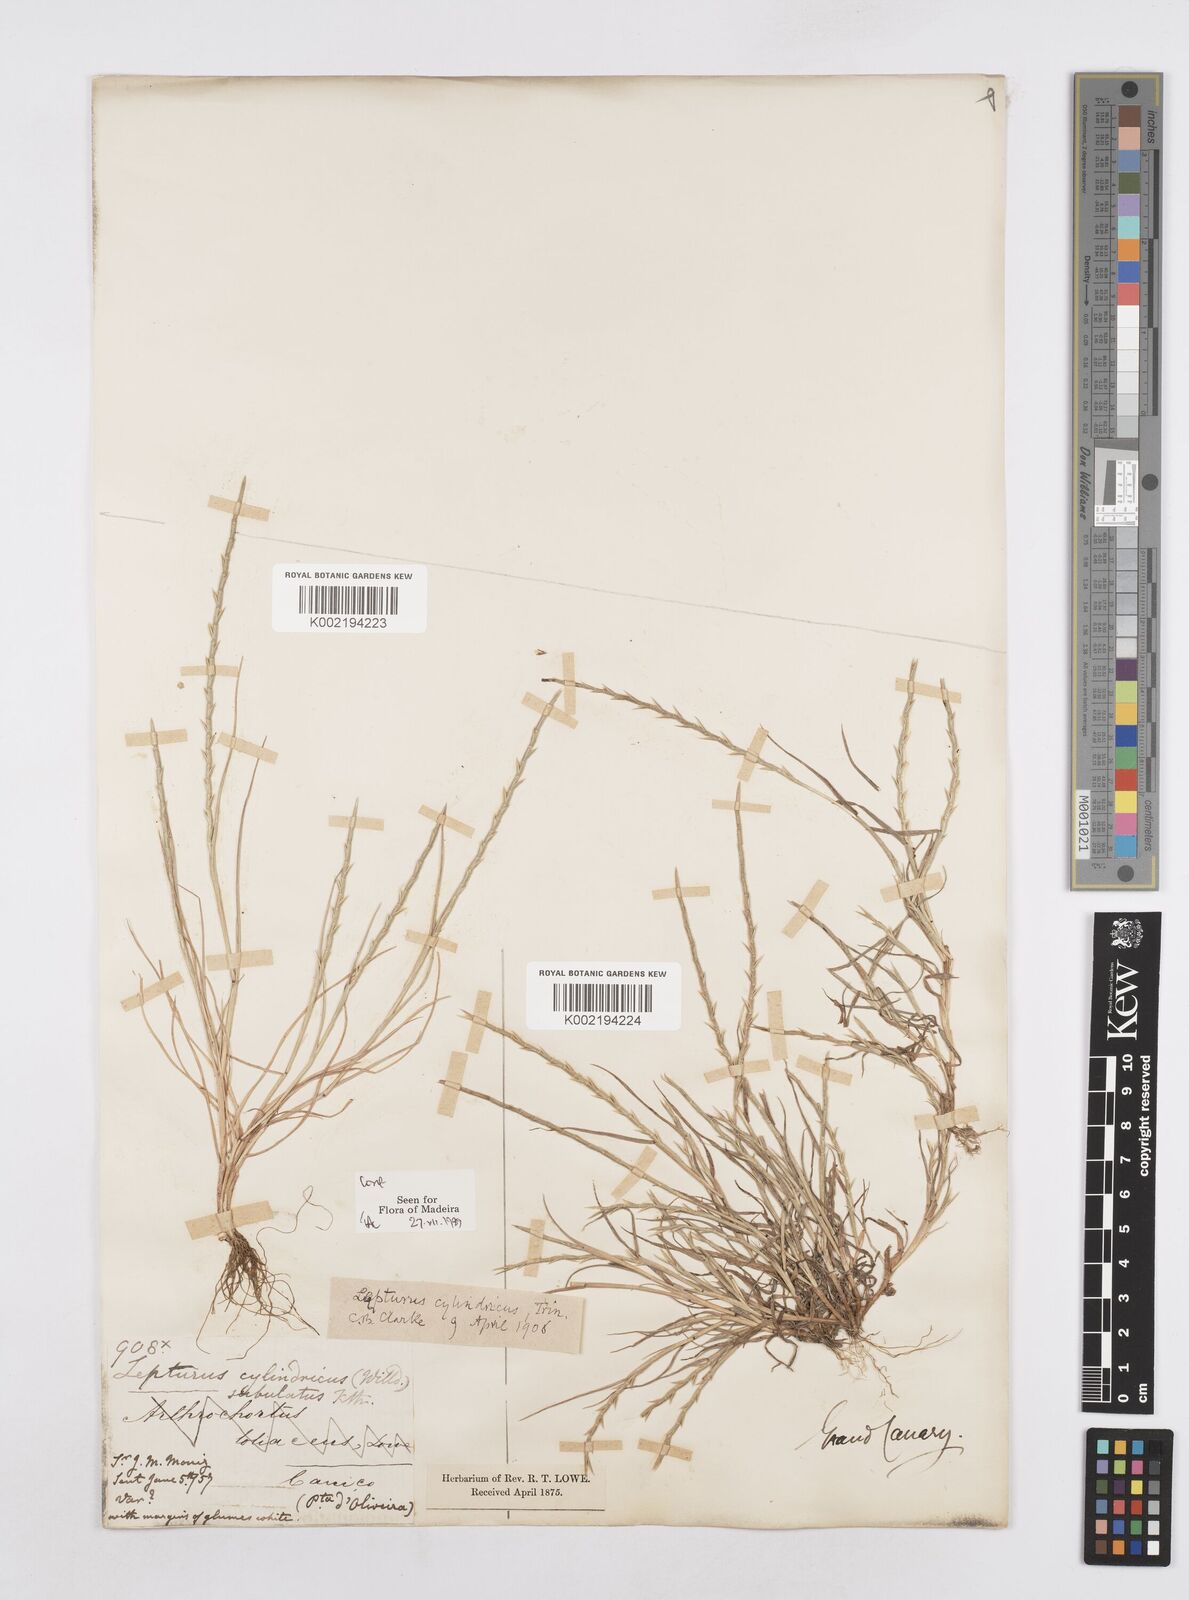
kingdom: Plantae
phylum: Tracheophyta
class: Liliopsida
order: Poales
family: Poaceae
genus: Parapholis
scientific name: Parapholis cylindrica
